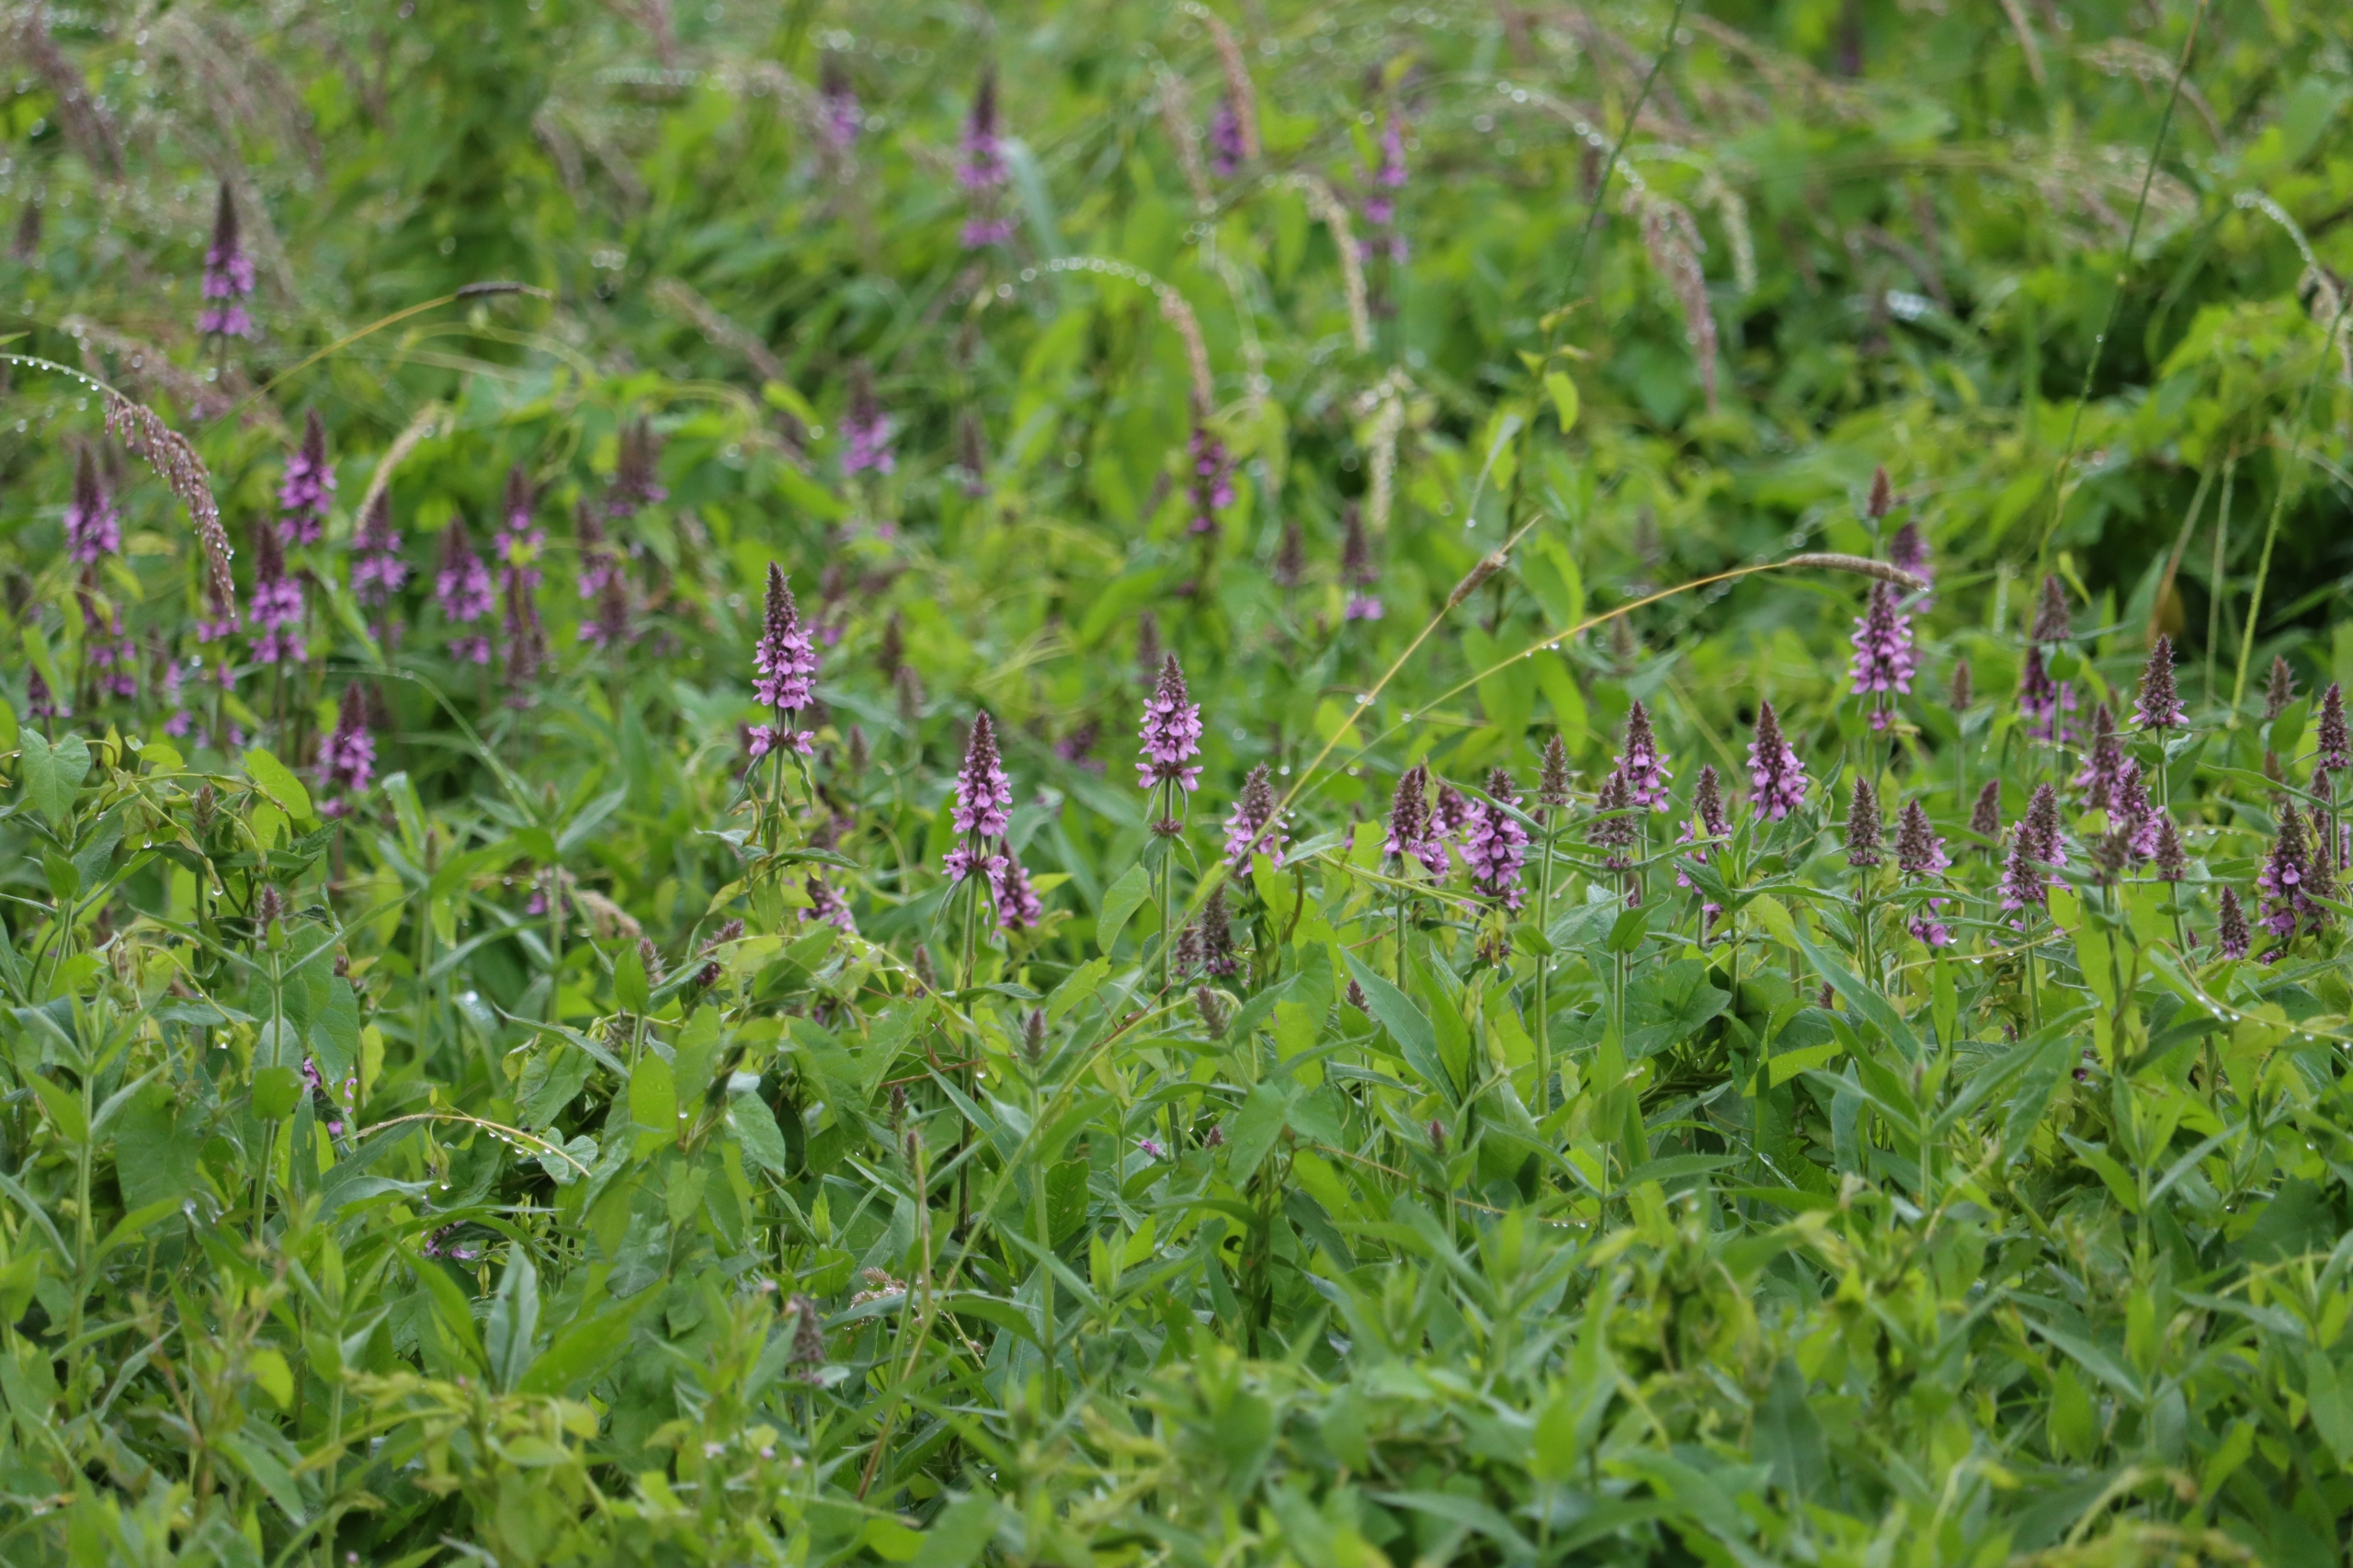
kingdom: Plantae
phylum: Tracheophyta
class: Magnoliopsida
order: Lamiales
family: Lamiaceae
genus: Stachys
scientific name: Stachys palustris
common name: Kær-galtetand
